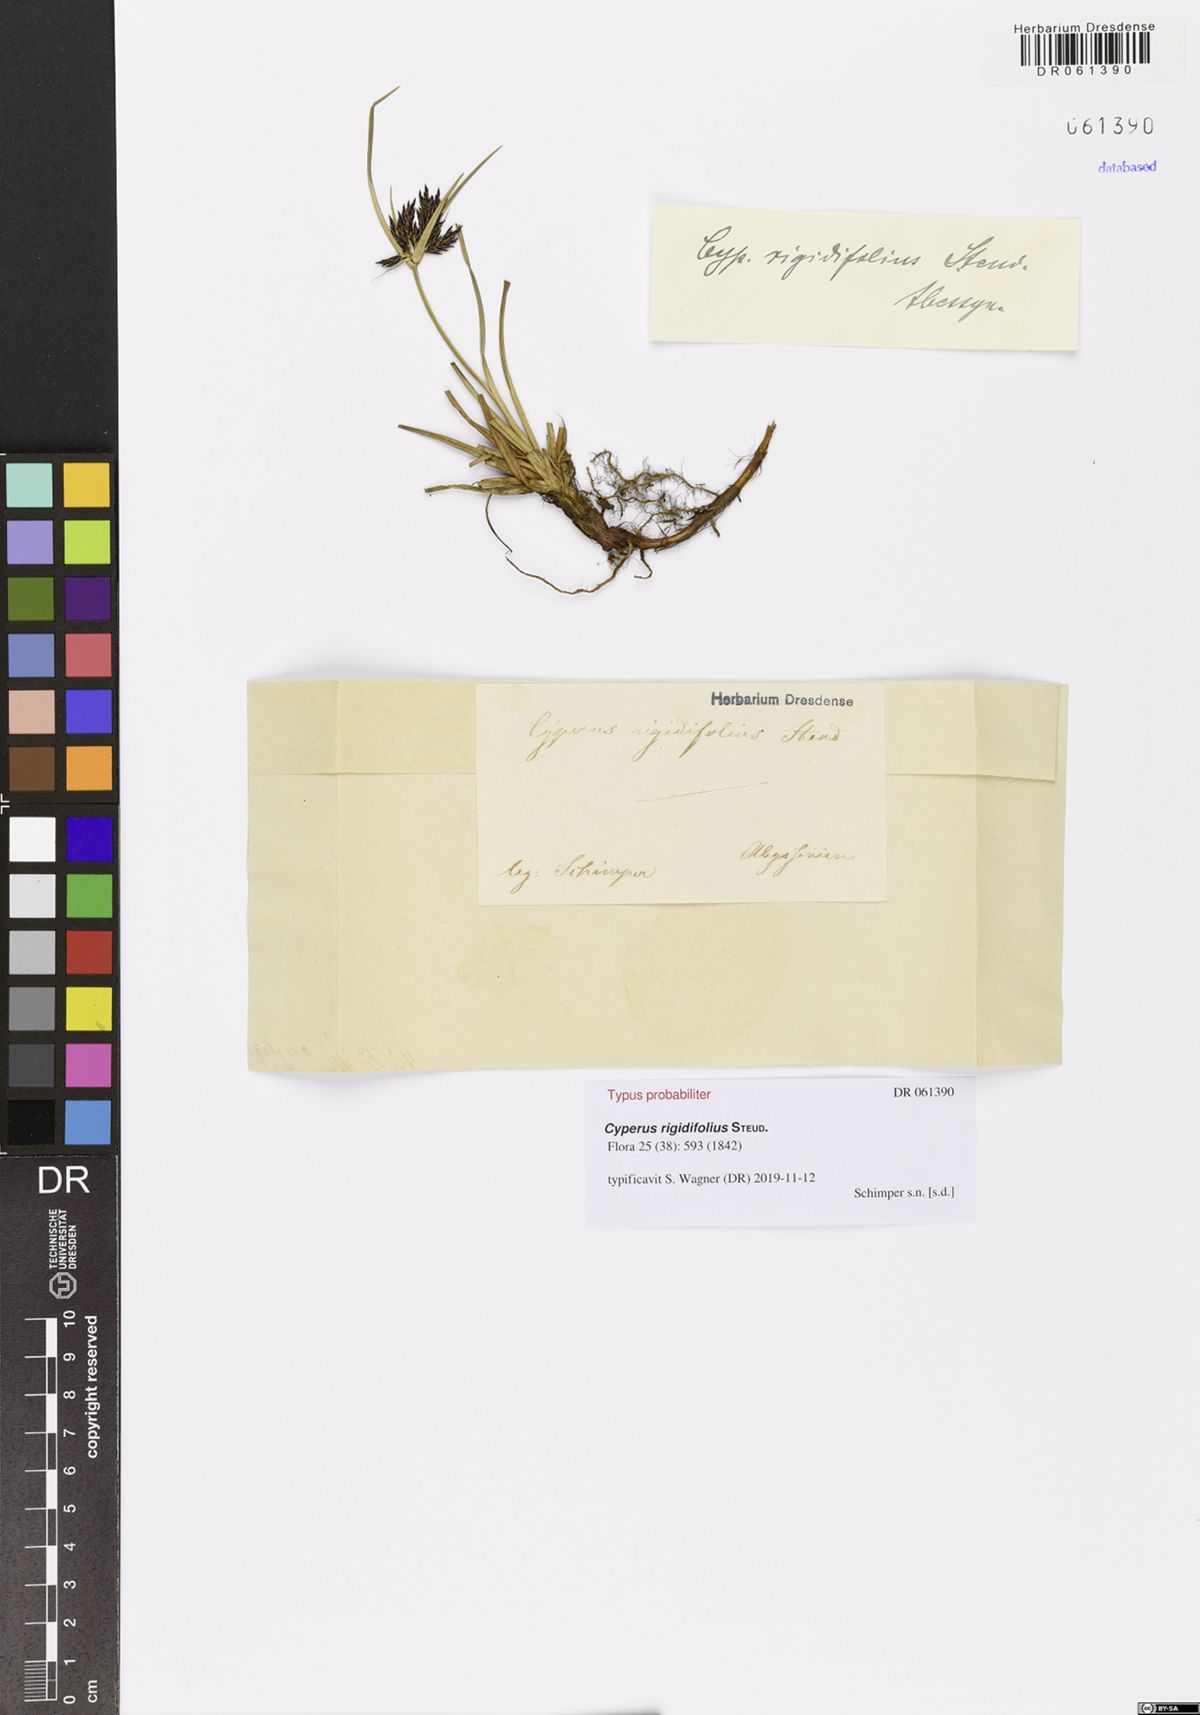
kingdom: Plantae
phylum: Tracheophyta
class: Liliopsida
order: Poales
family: Cyperaceae
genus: Cyperus
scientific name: Cyperus rigidifolius
